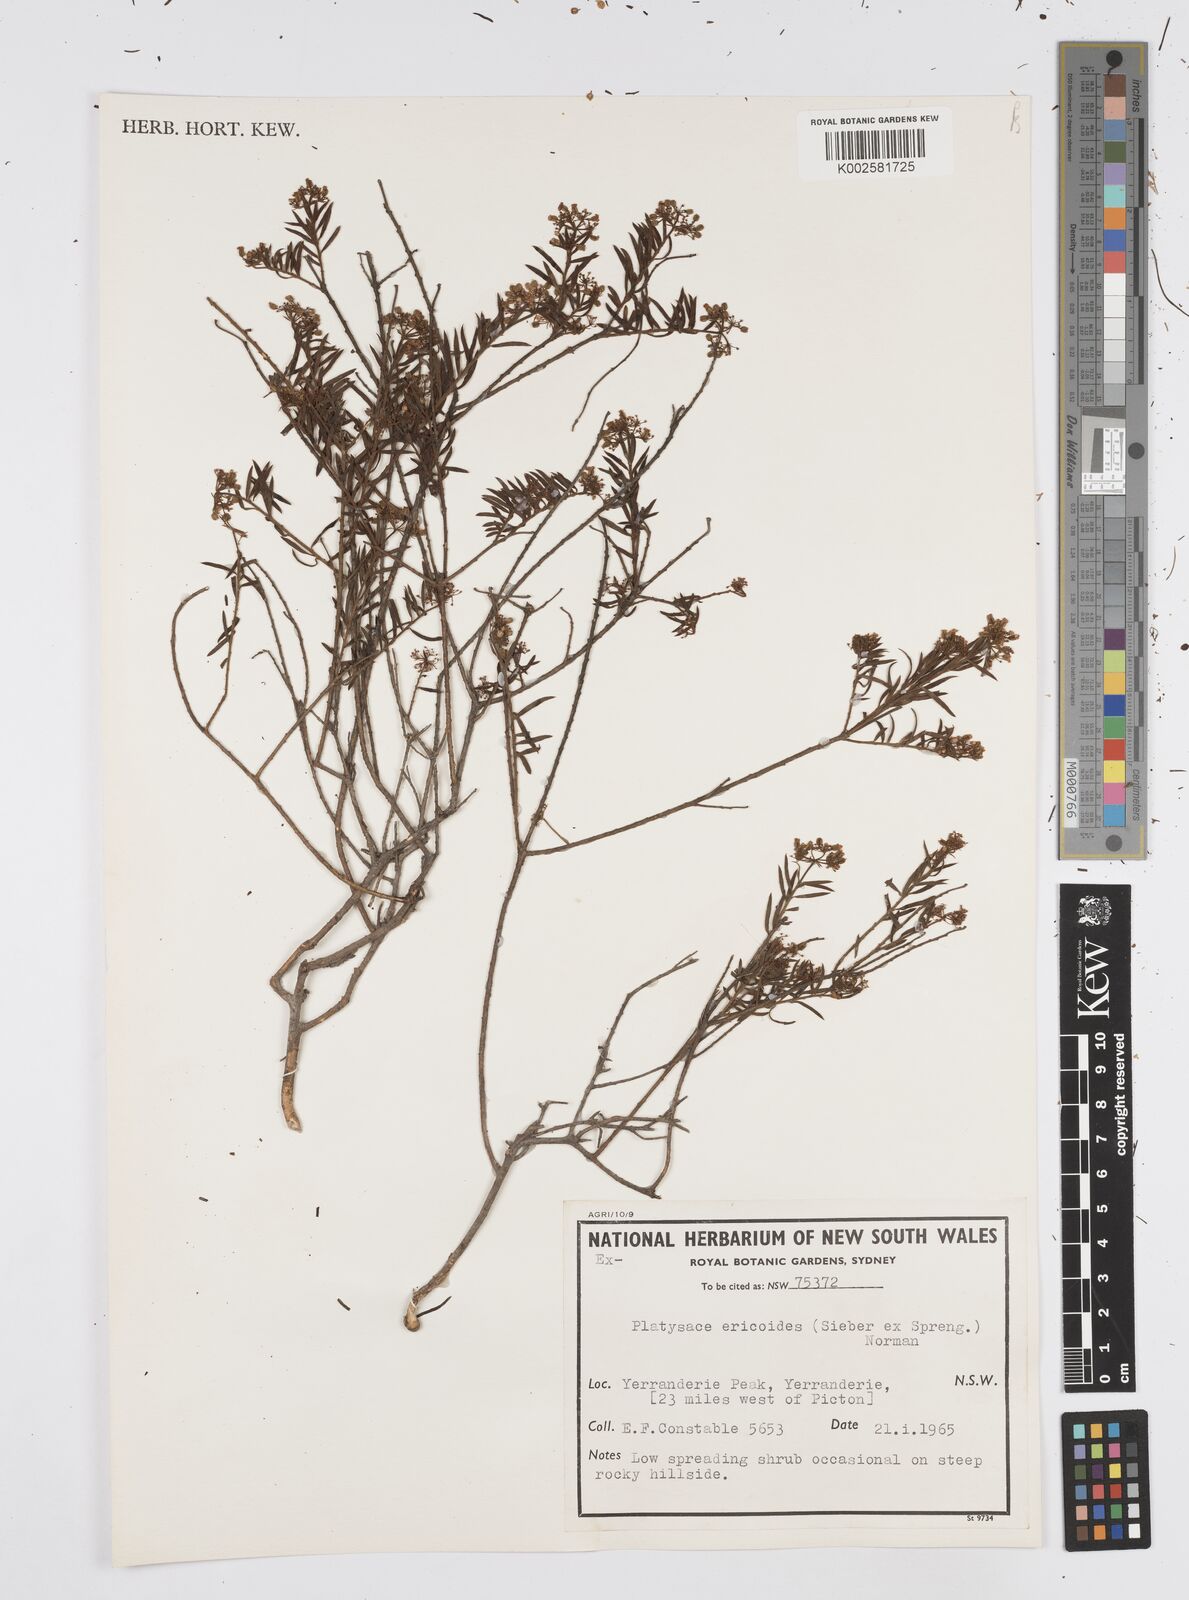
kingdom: Plantae
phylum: Tracheophyta
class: Magnoliopsida
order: Apiales
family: Apiaceae
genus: Platysace
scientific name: Platysace ericoides
